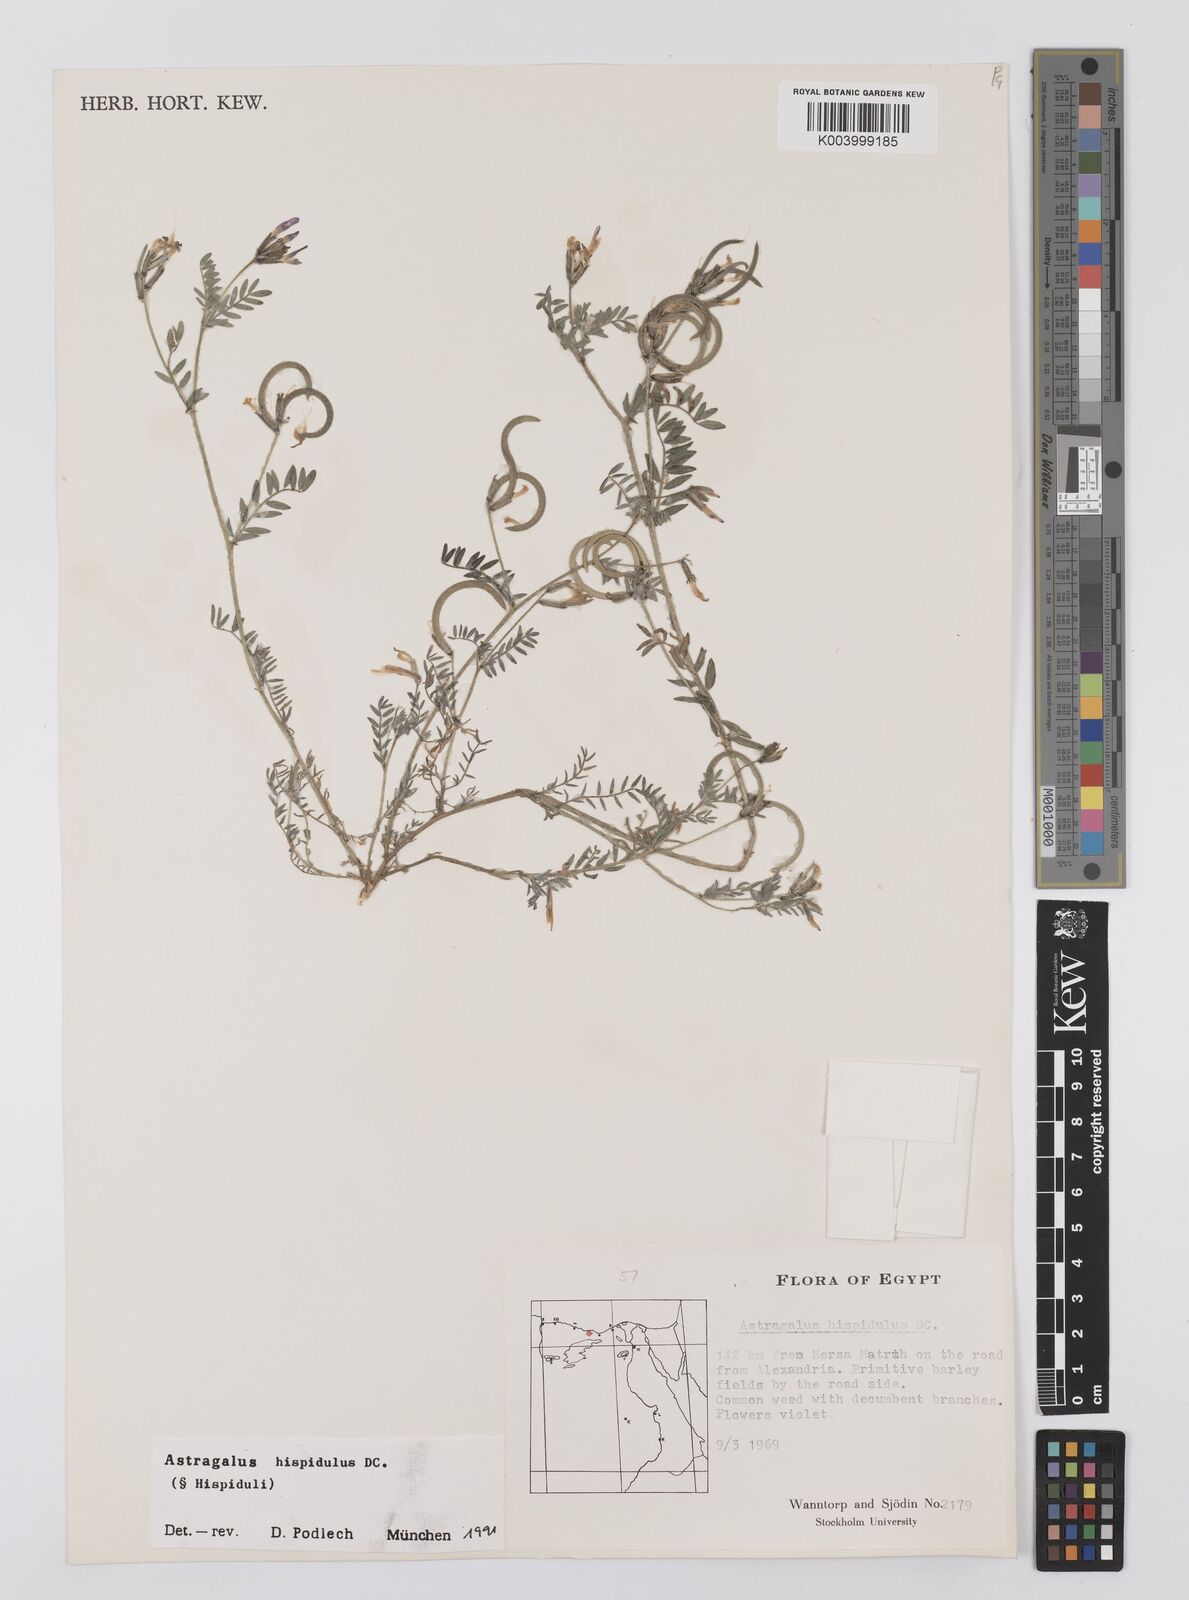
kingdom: Plantae
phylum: Tracheophyta
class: Magnoliopsida
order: Fabales
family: Fabaceae
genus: Astragalus
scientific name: Astragalus hispidulus
